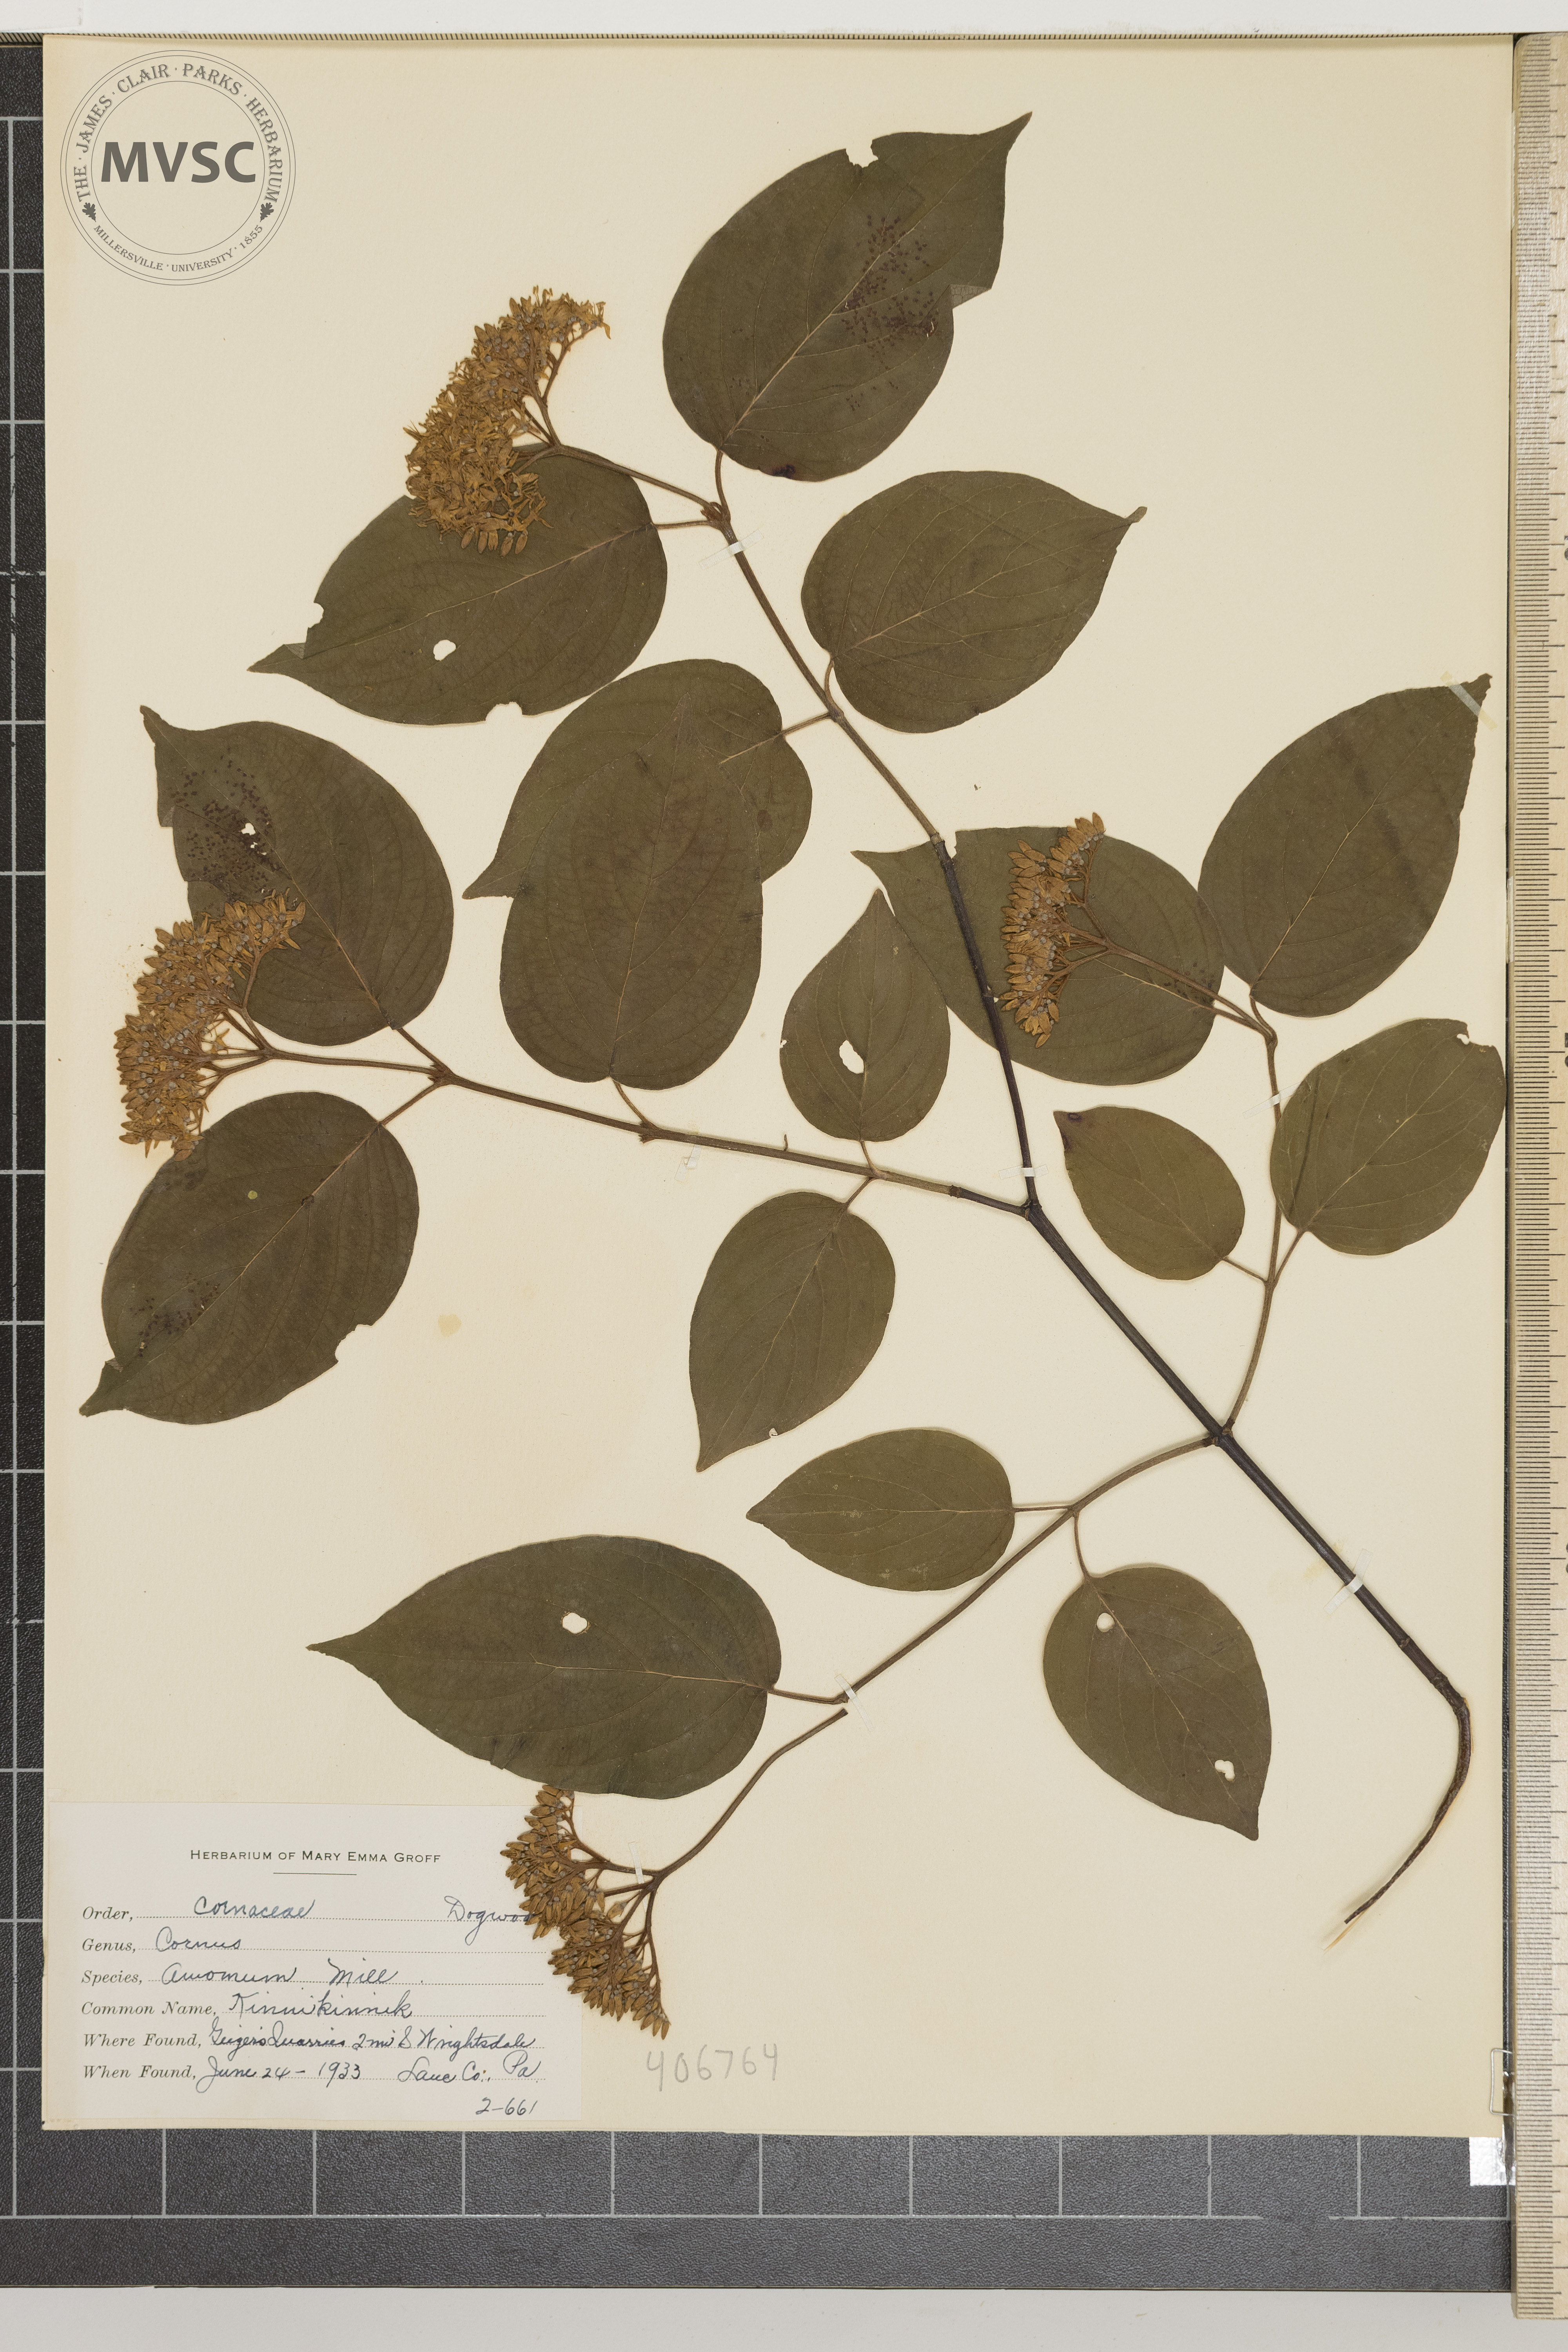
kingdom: Plantae
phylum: Tracheophyta
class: Magnoliopsida
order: Cornales
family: Cornaceae
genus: Cornus
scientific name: Cornus amomum
